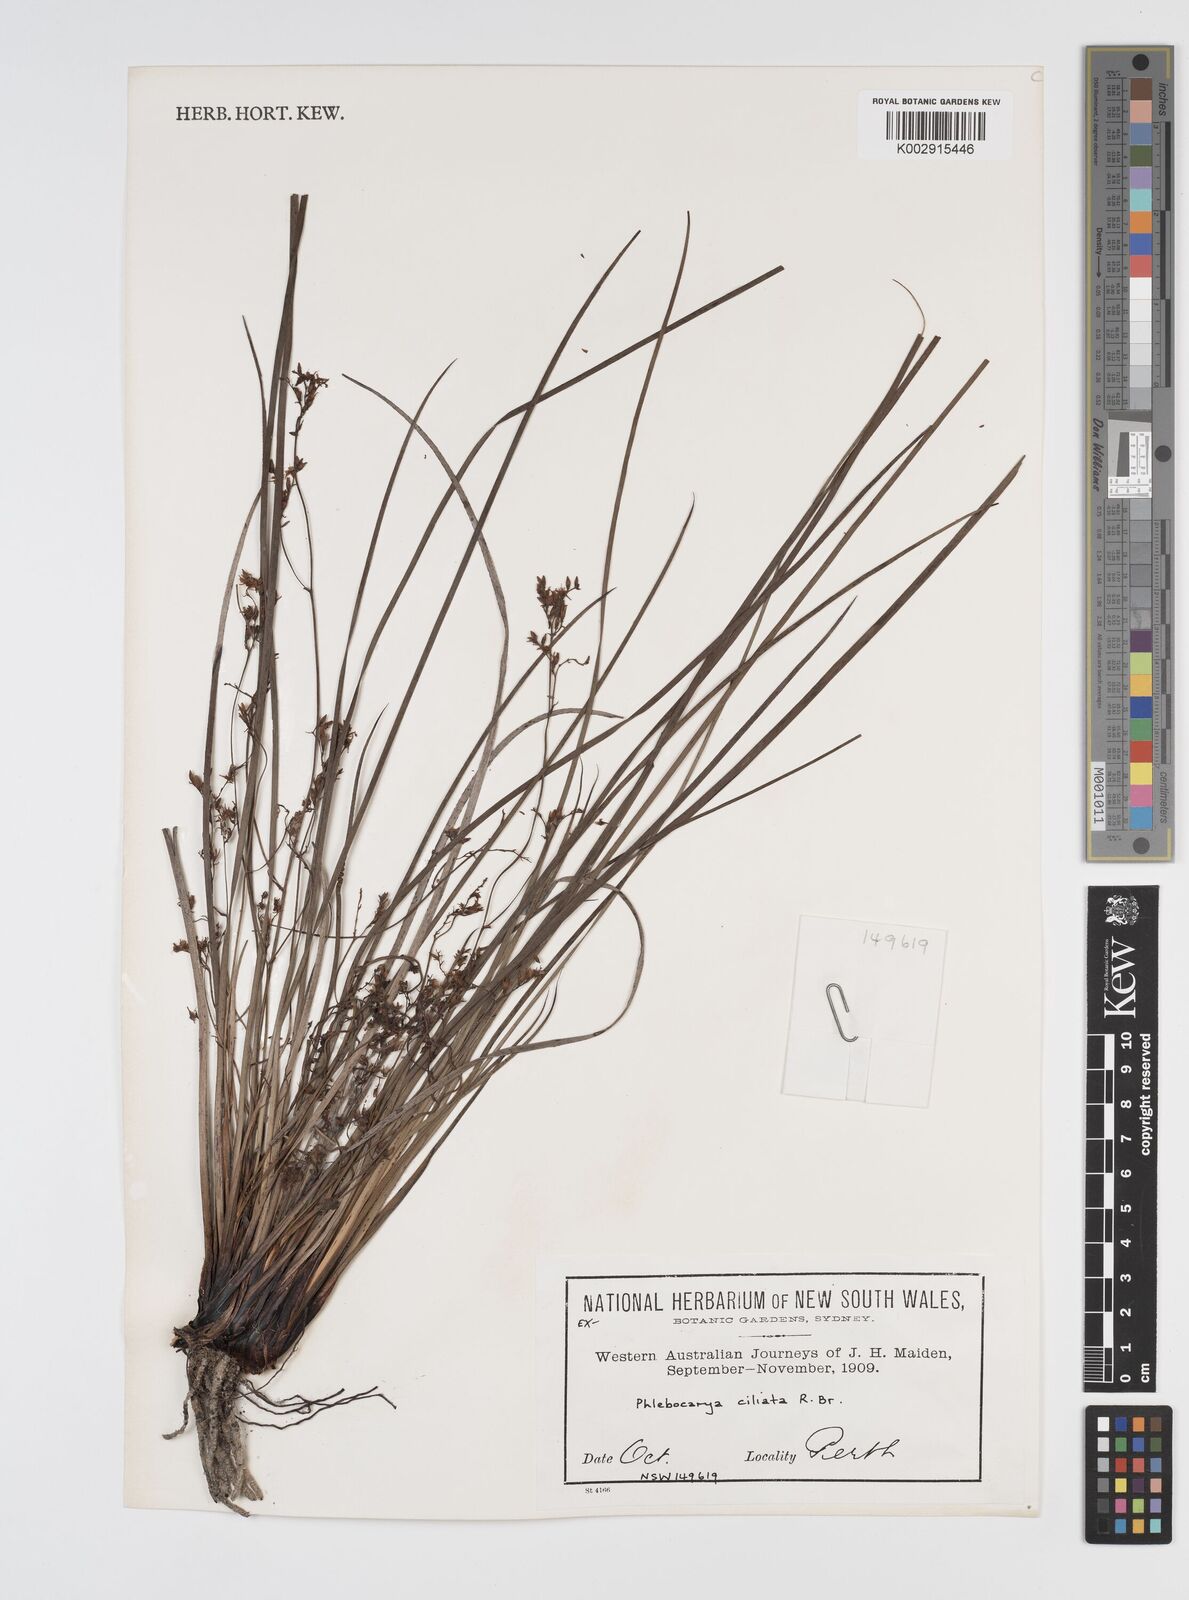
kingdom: Plantae
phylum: Tracheophyta
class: Liliopsida
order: Commelinales
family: Haemodoraceae
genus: Phlebocarya
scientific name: Phlebocarya ciliata
